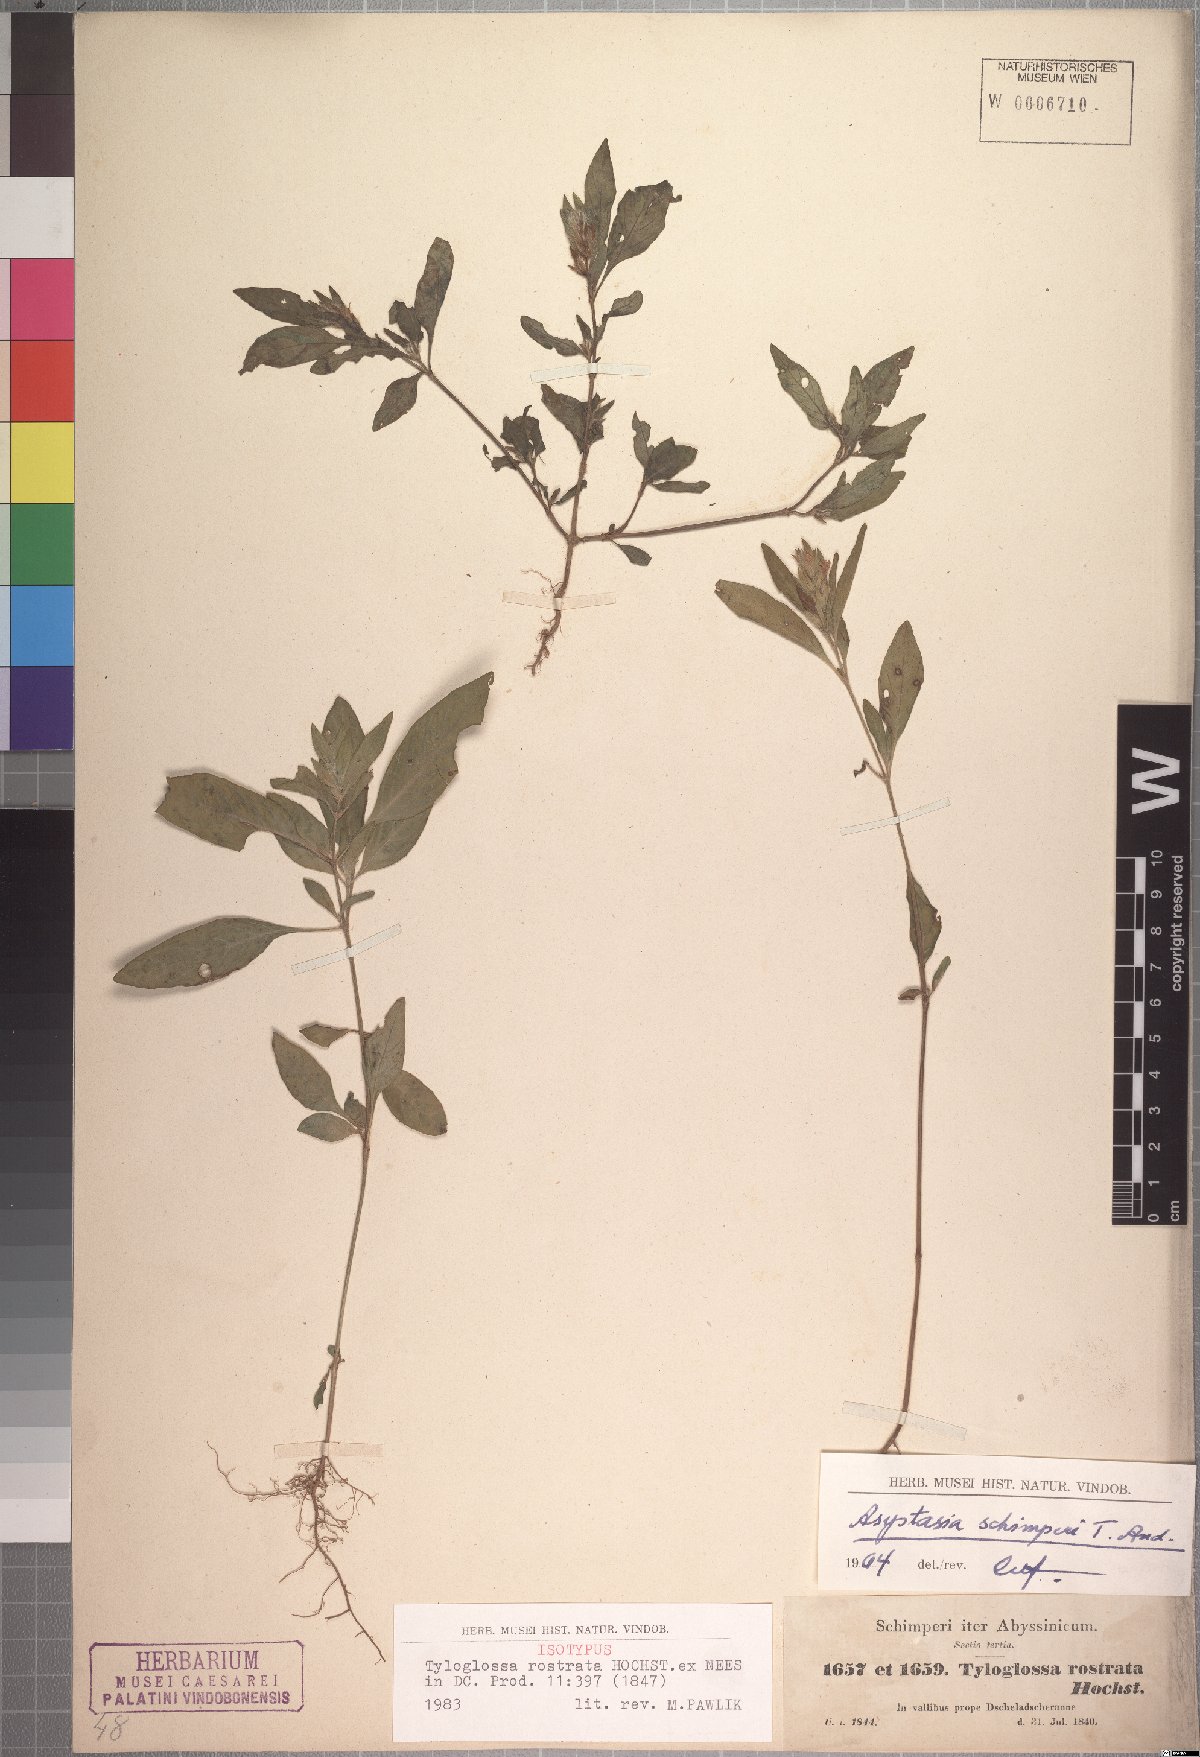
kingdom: Plantae
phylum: Tracheophyta
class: Magnoliopsida
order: Lamiales
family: Acanthaceae
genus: Justicia
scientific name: Justicia ladanoides
